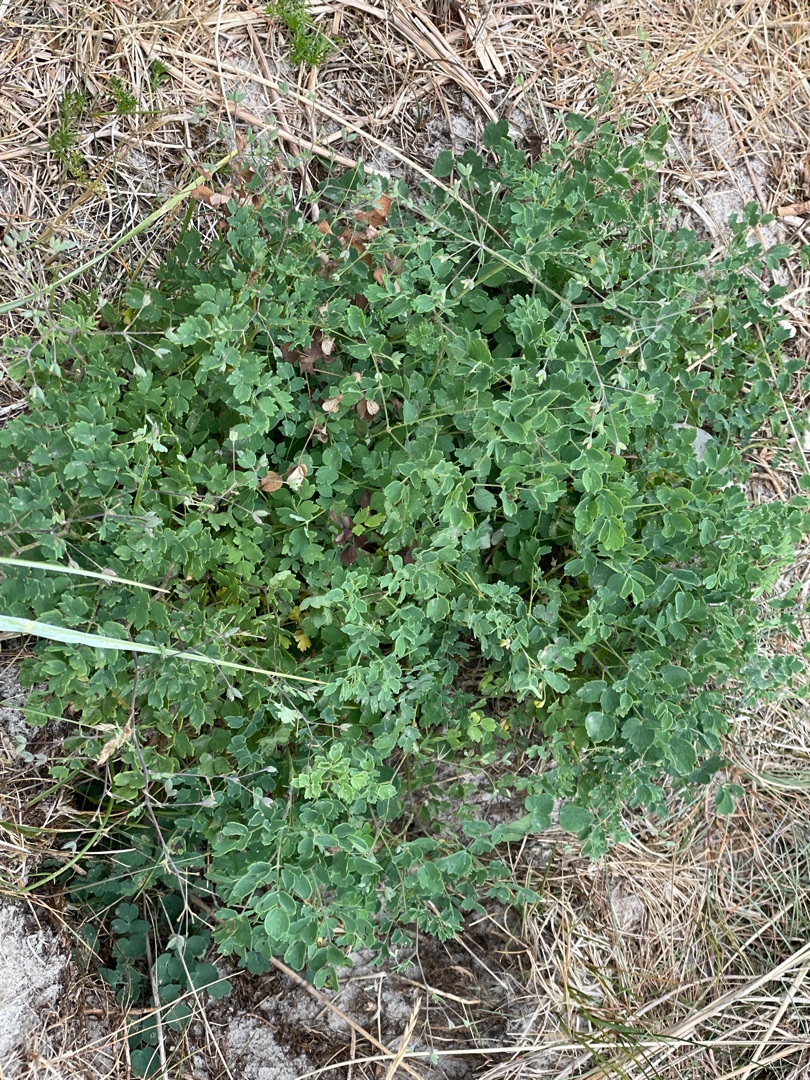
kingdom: Plantae
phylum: Tracheophyta
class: Magnoliopsida
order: Ranunculales
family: Ranunculaceae
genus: Thalictrum
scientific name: Thalictrum minus
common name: Sand-frøstjerne
